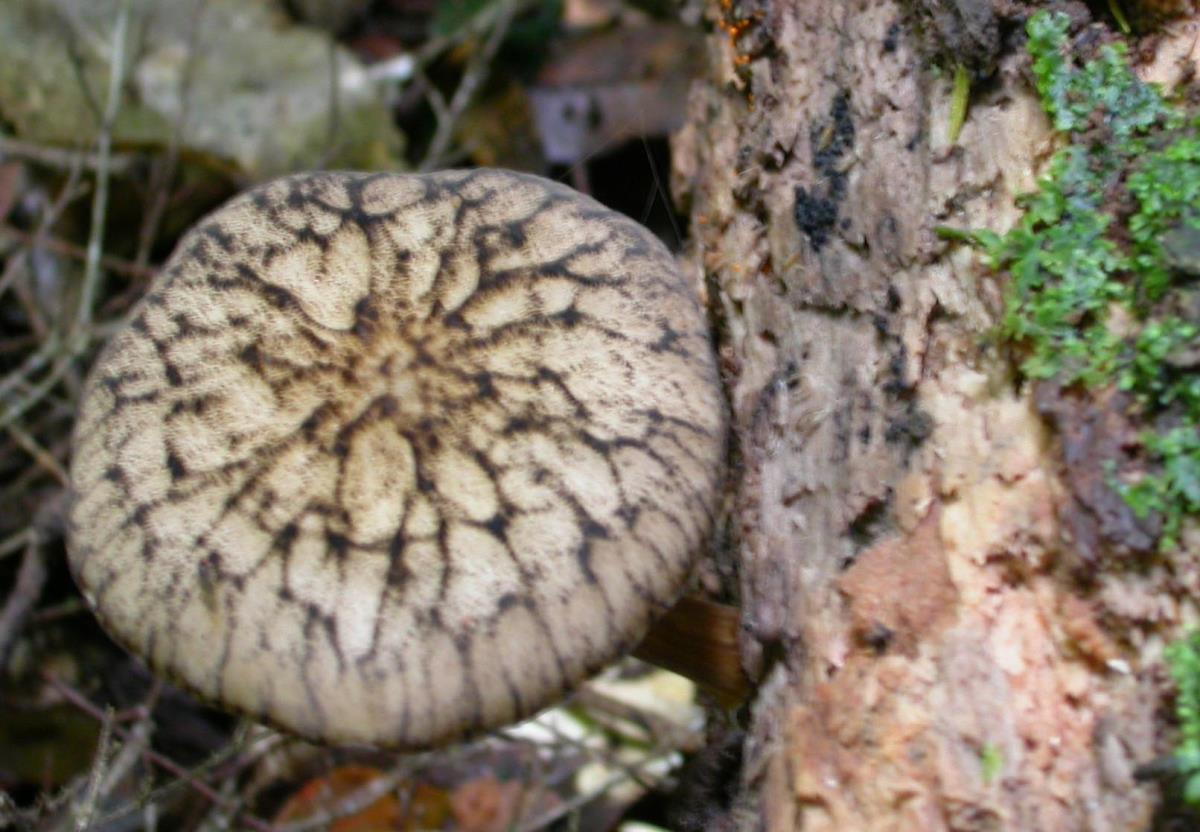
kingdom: Fungi
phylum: Basidiomycota
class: Agaricomycetes
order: Agaricales
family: Pluteaceae
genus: Pluteus
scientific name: Pluteus
